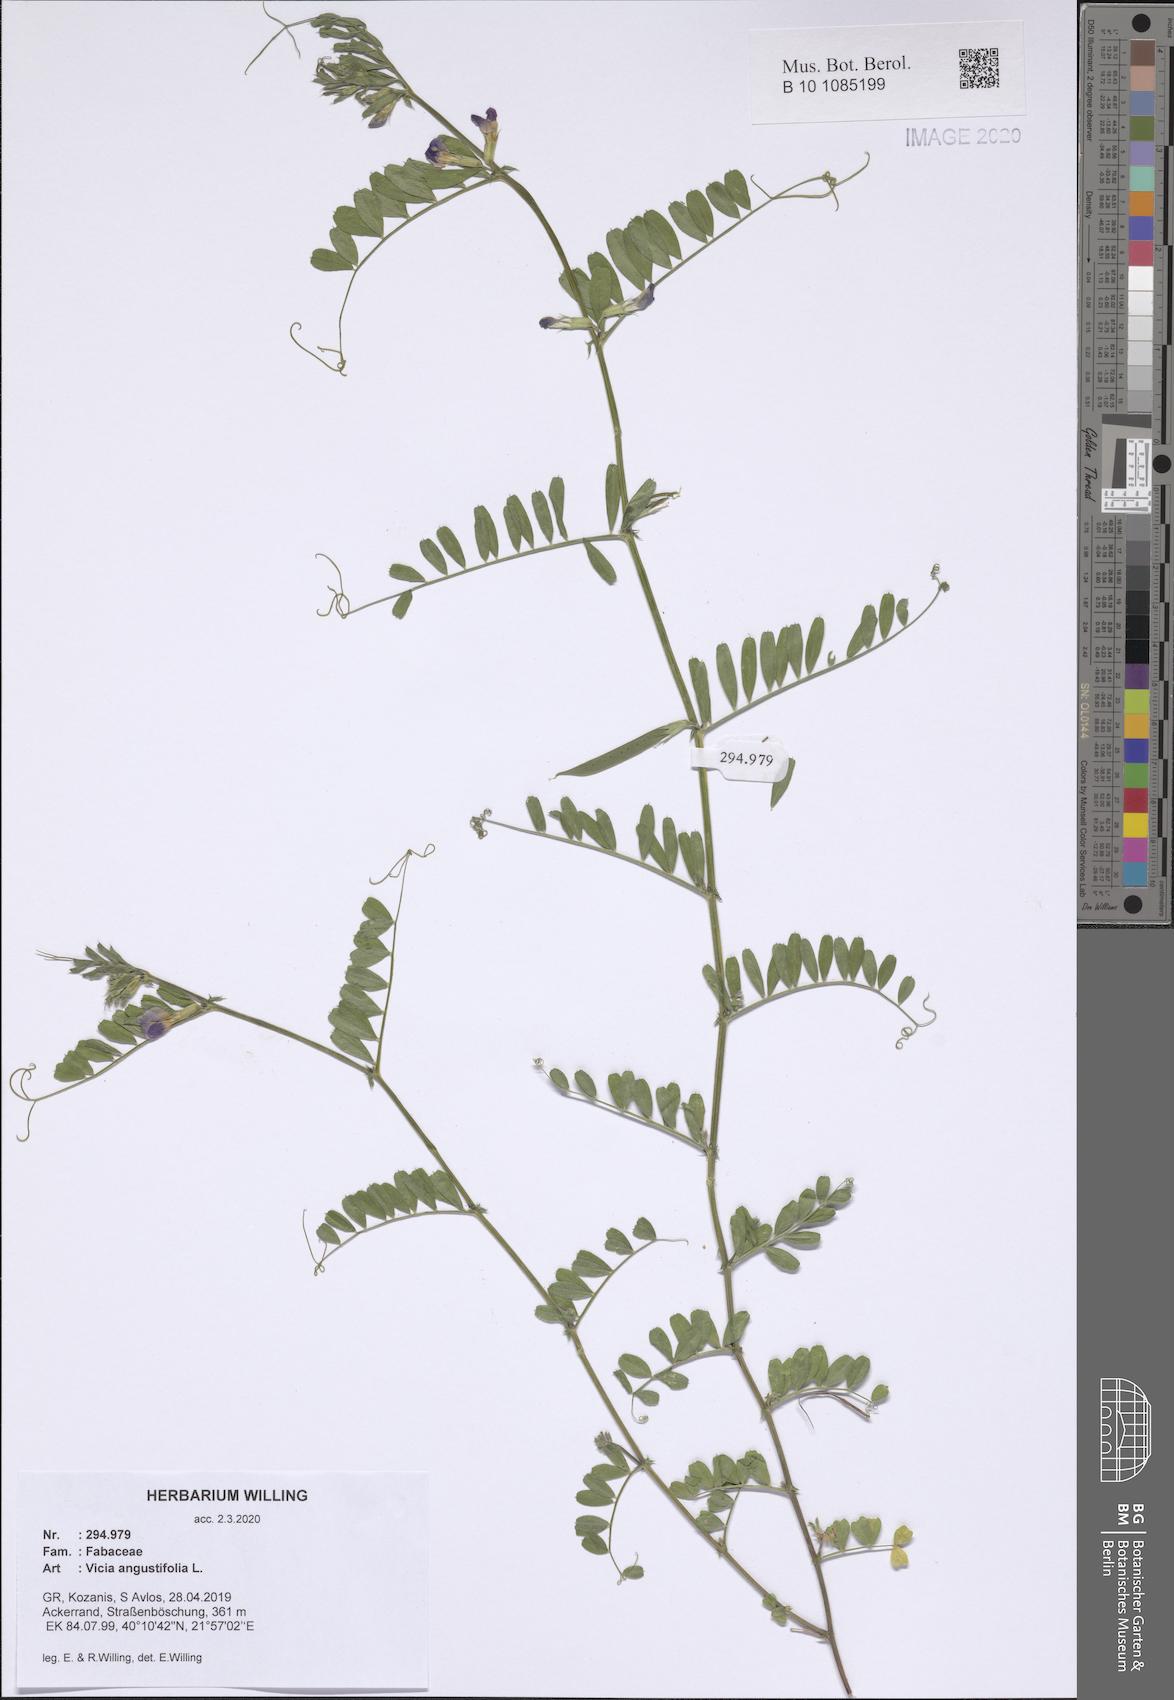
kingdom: Plantae
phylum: Tracheophyta
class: Magnoliopsida
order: Fabales
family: Fabaceae
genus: Vicia
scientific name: Vicia sativa
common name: Garden vetch
